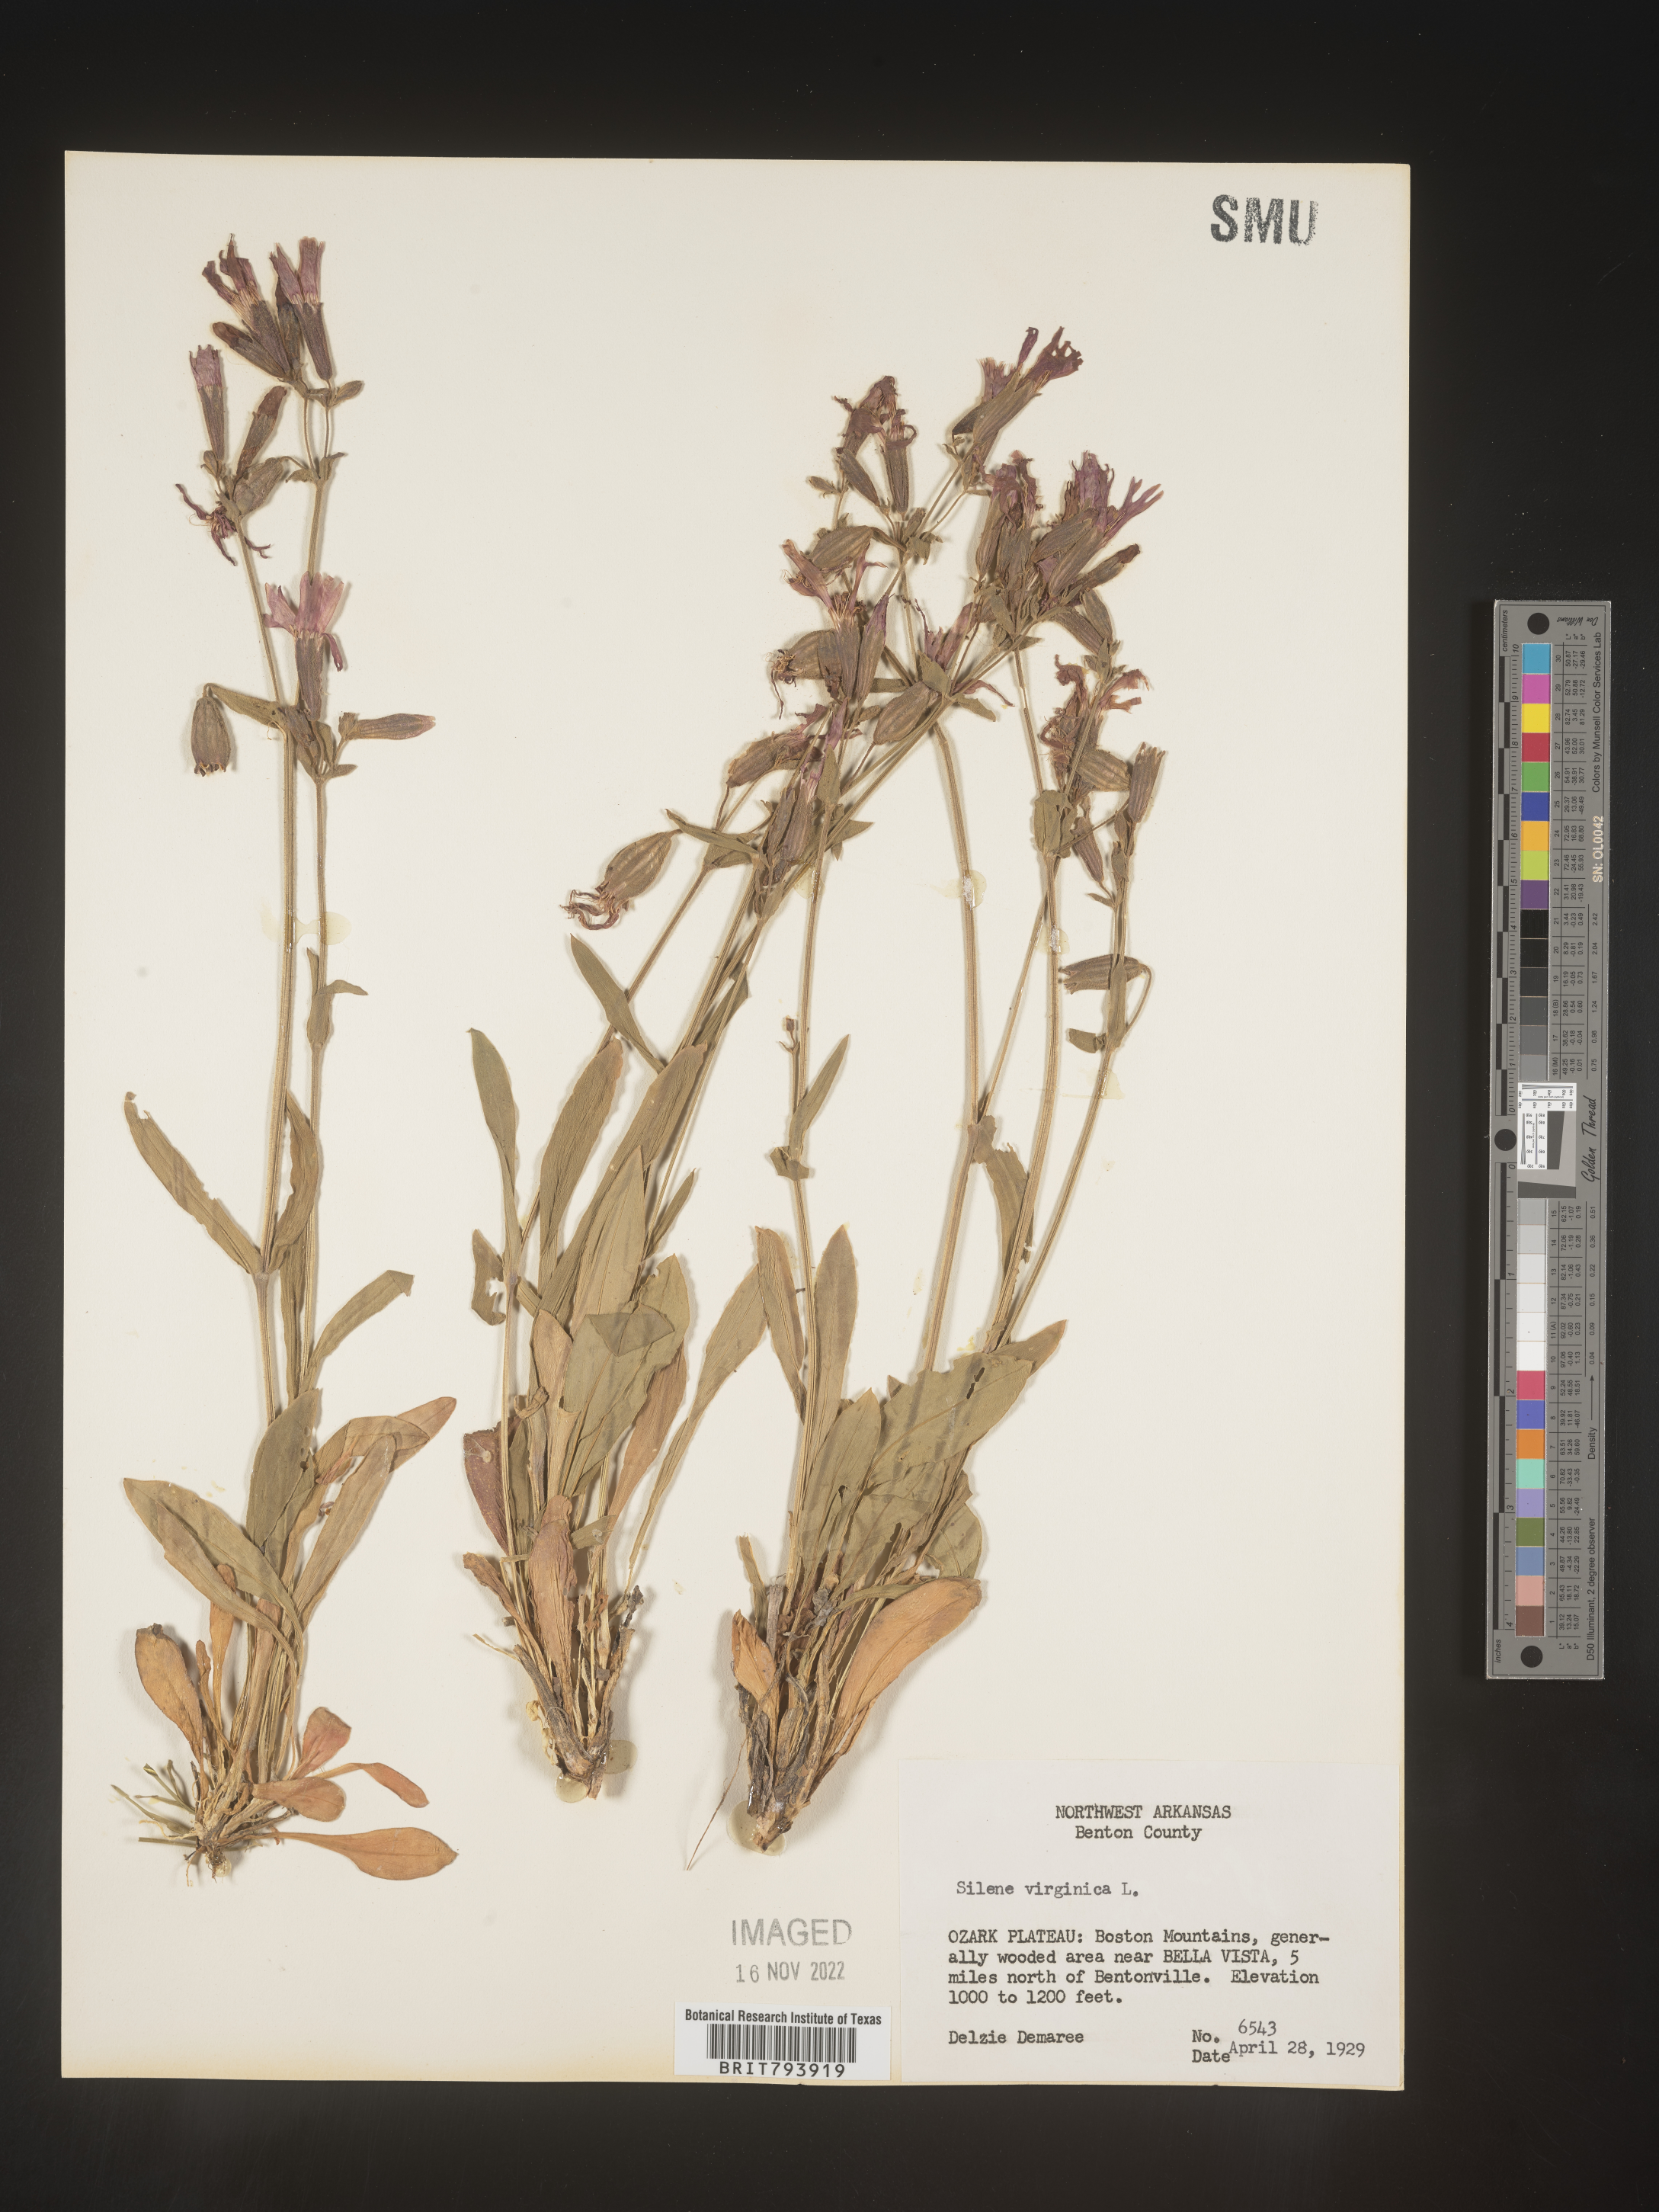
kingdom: Plantae
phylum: Tracheophyta
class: Magnoliopsida
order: Caryophyllales
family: Caryophyllaceae
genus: Silene
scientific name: Silene virginica
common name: Fire-pink
